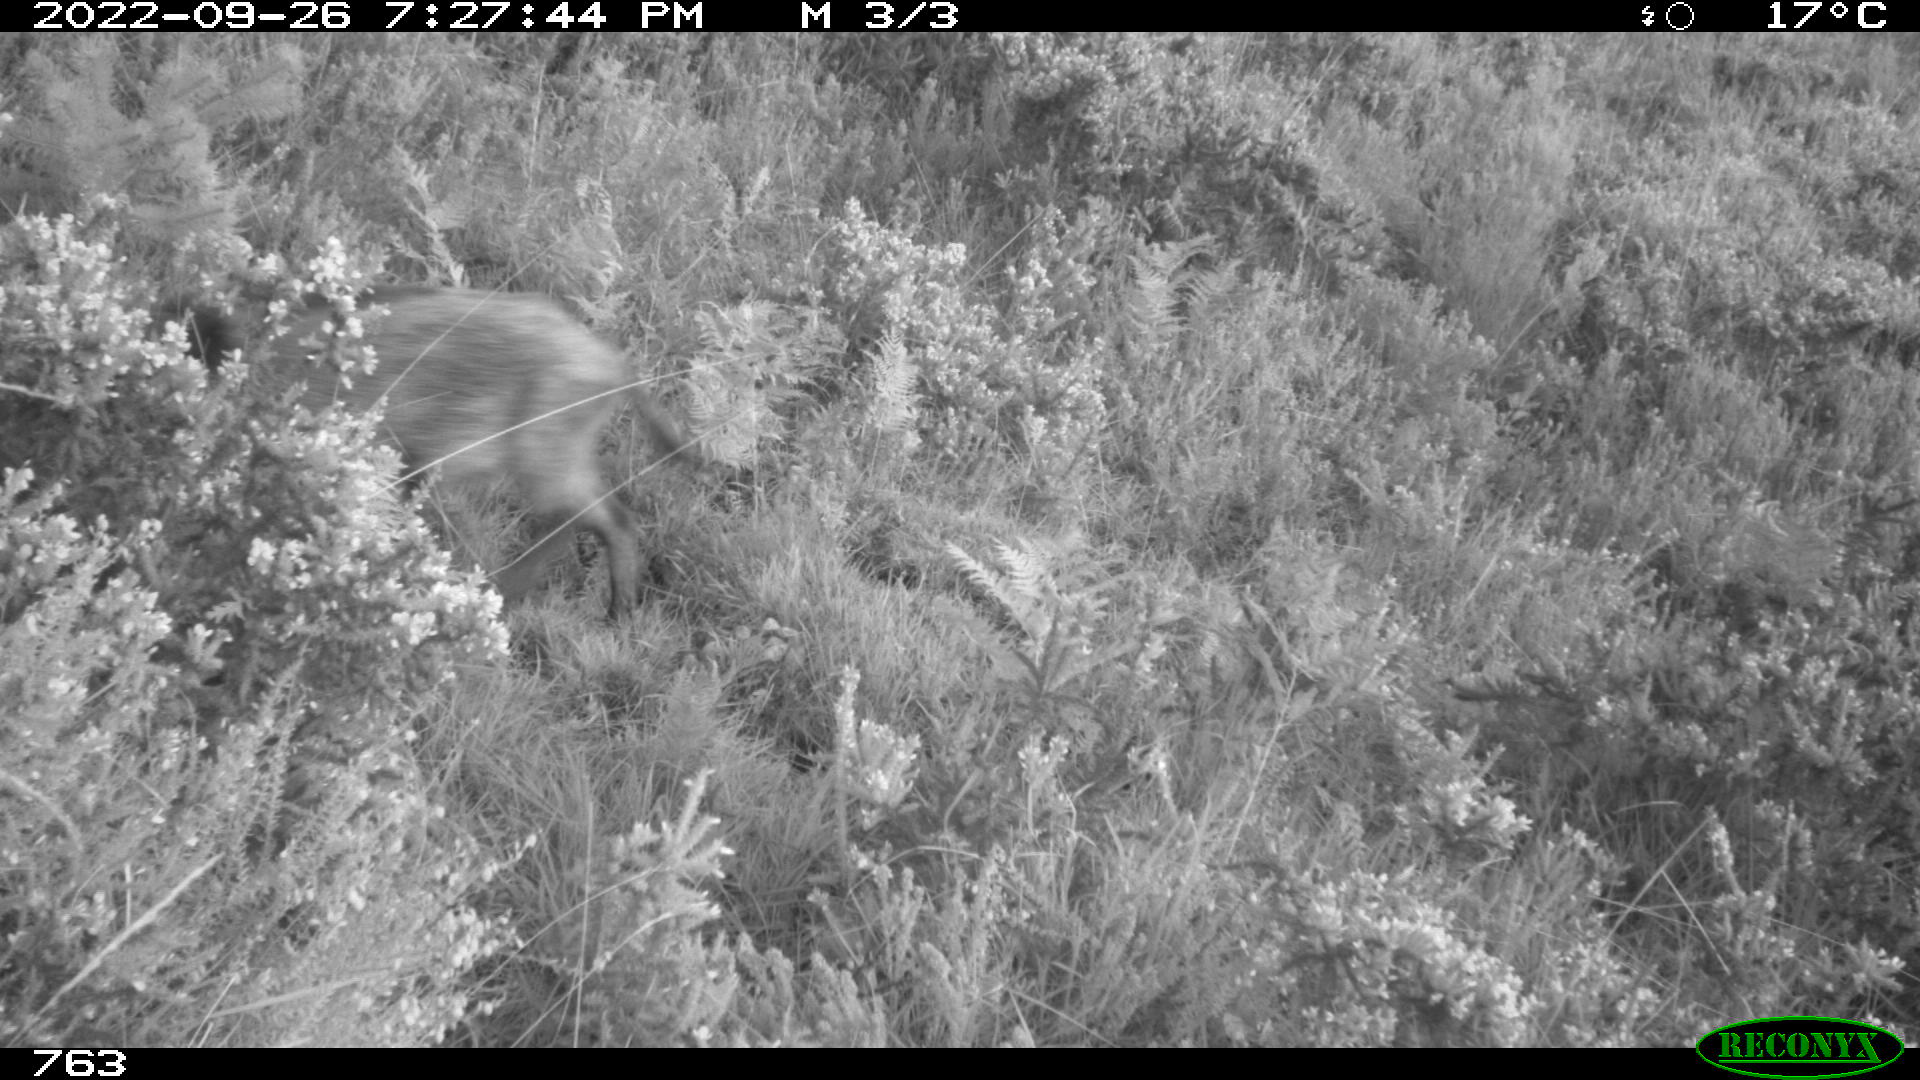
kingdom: Animalia
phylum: Chordata
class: Mammalia
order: Artiodactyla
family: Suidae
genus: Sus
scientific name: Sus scrofa
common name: Wild boar
